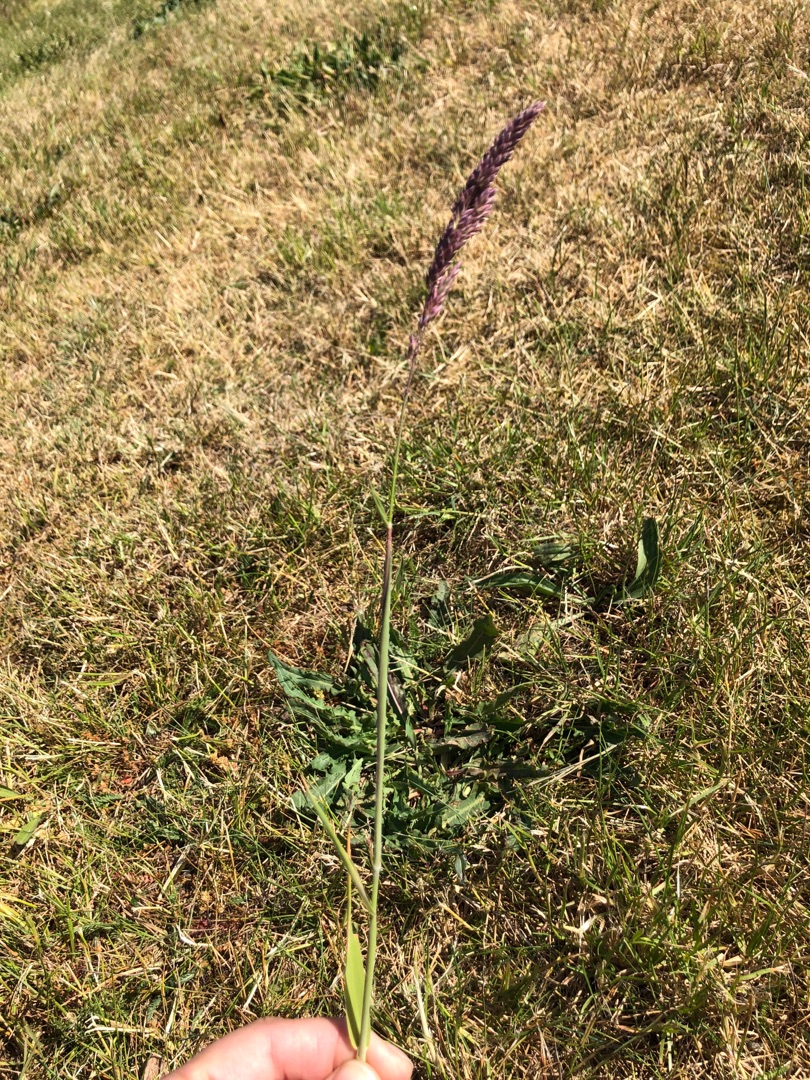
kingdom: Plantae
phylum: Tracheophyta
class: Liliopsida
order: Poales
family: Poaceae
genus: Holcus
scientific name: Holcus lanatus
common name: Fløjlsgræs
